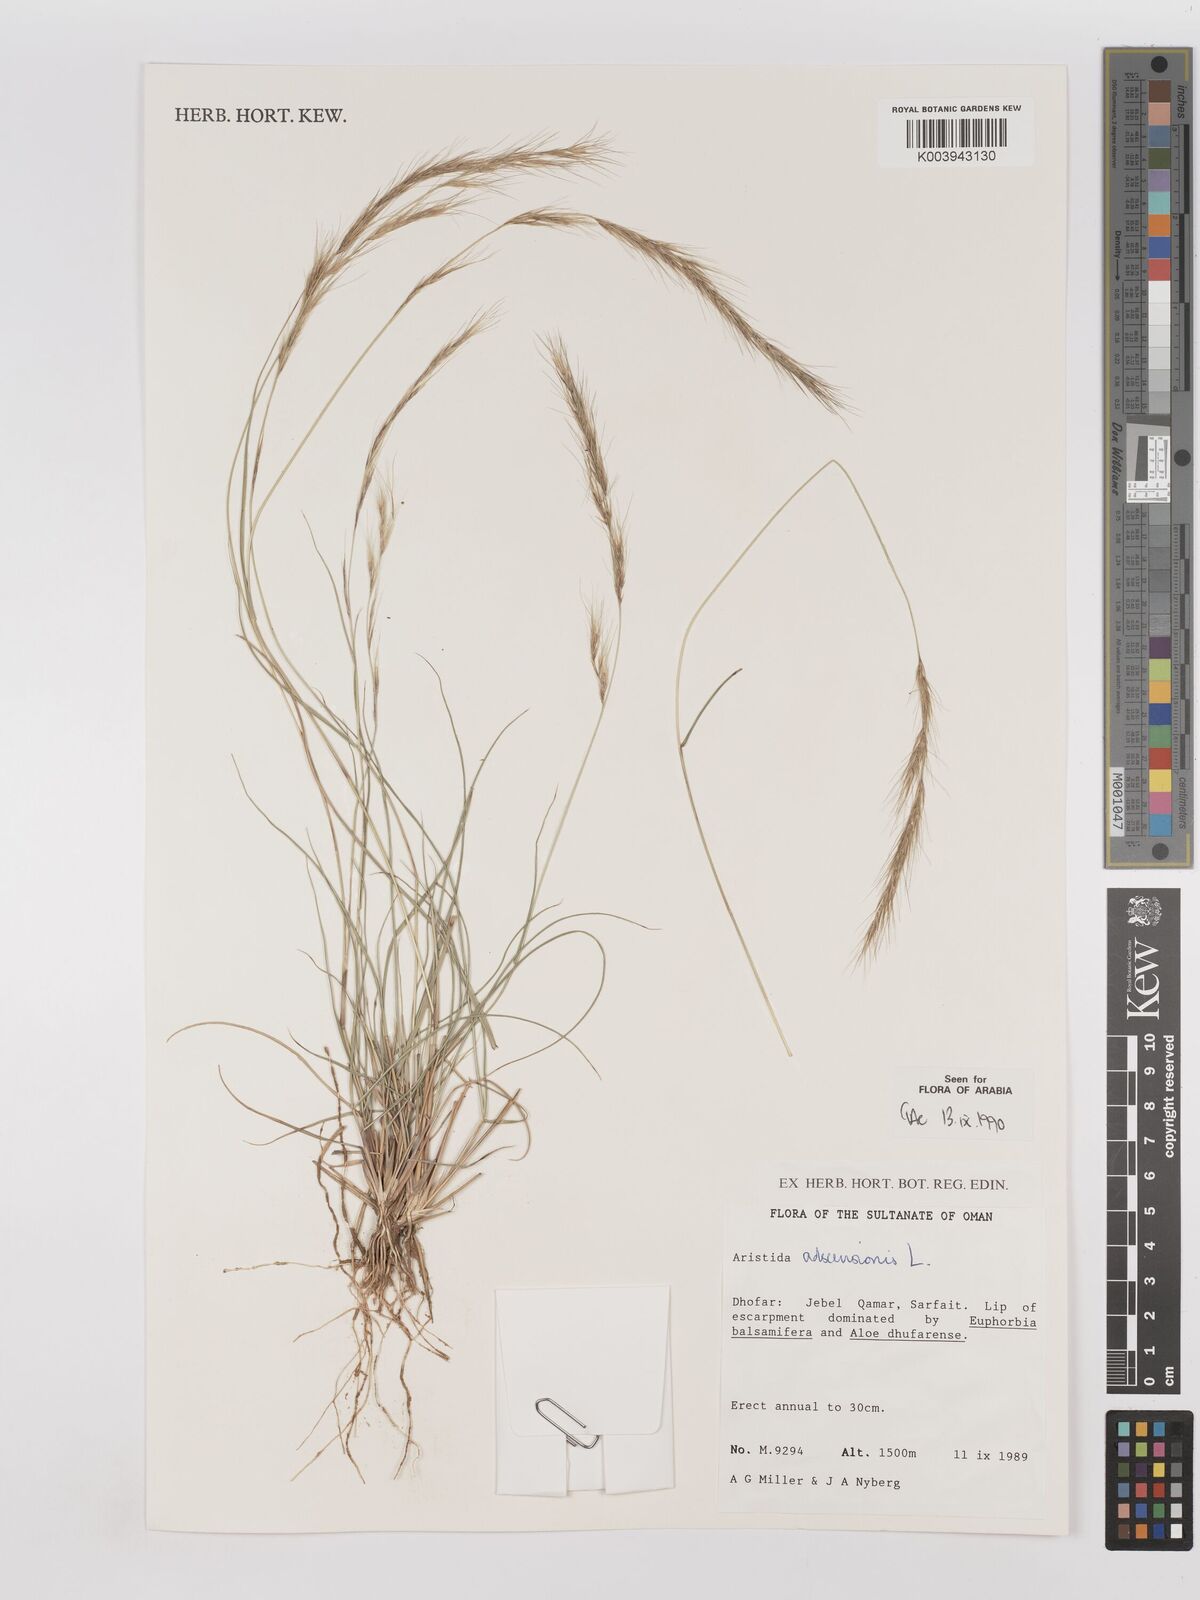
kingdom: Plantae
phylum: Tracheophyta
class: Liliopsida
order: Poales
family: Poaceae
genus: Aristida
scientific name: Aristida adscensionis
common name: Sixweeks threeawn
